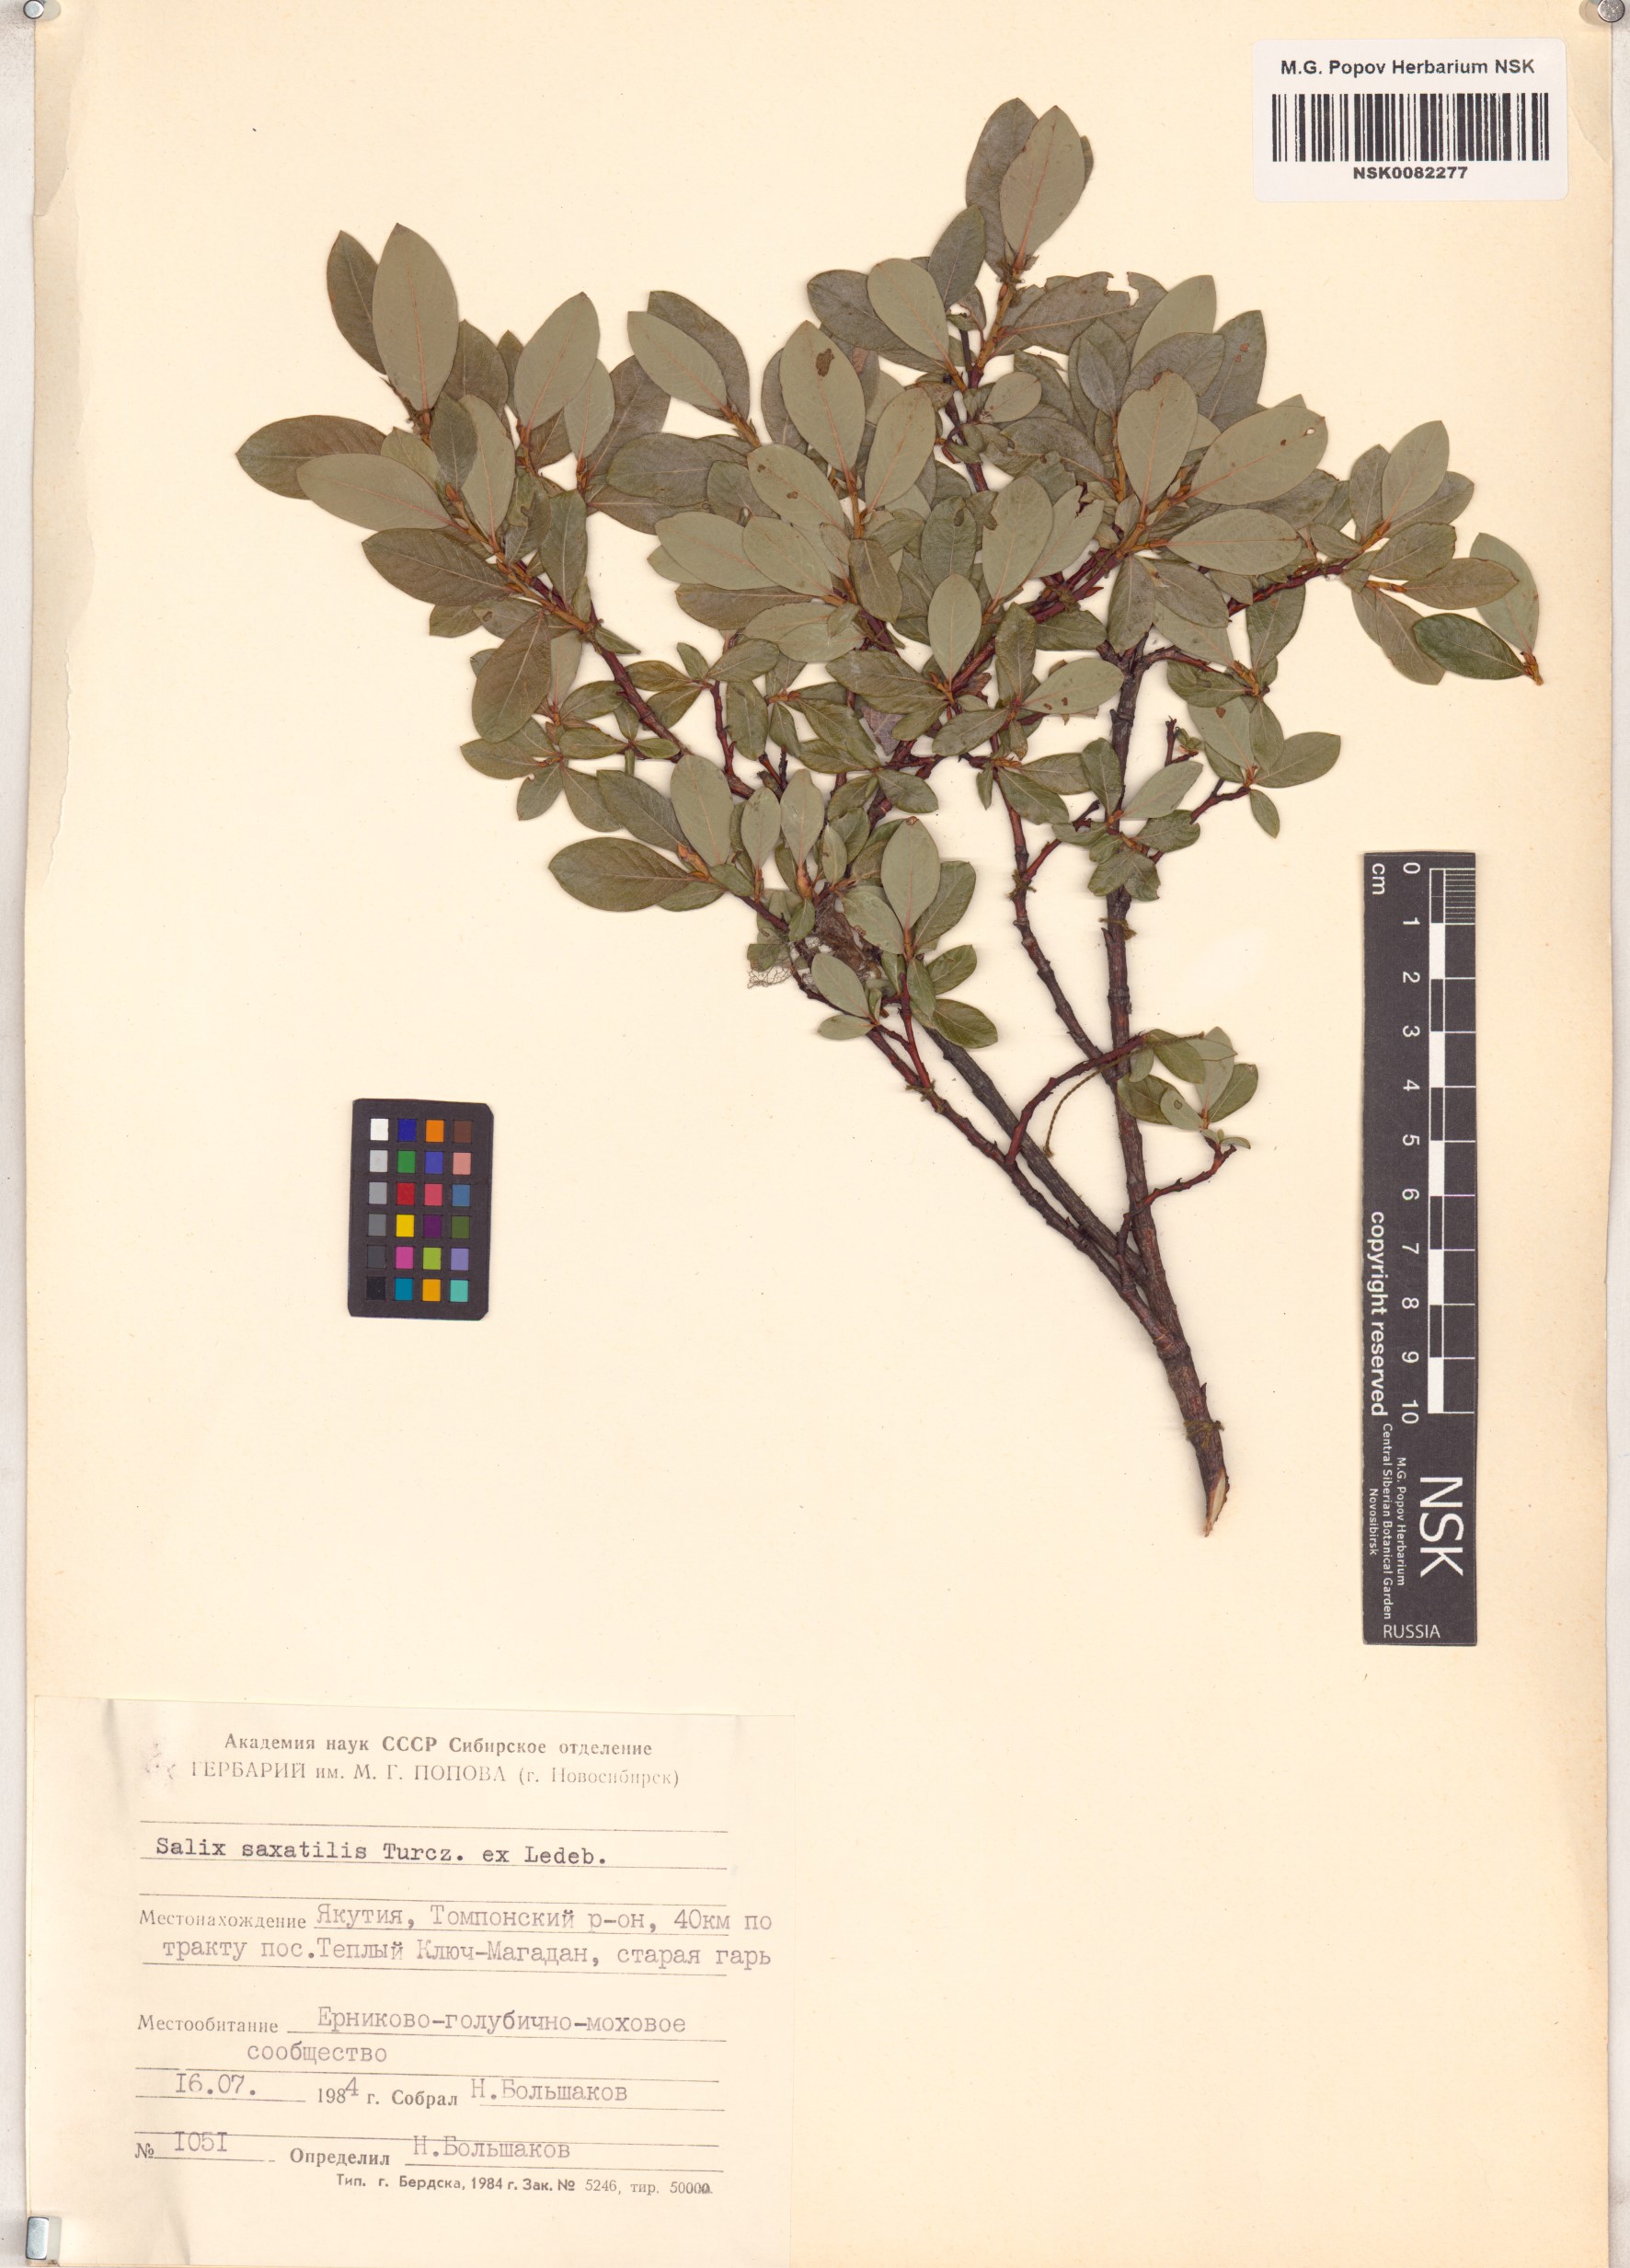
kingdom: Plantae
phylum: Tracheophyta
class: Magnoliopsida
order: Malpighiales
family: Salicaceae
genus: Salix
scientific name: Salix saxatilis
